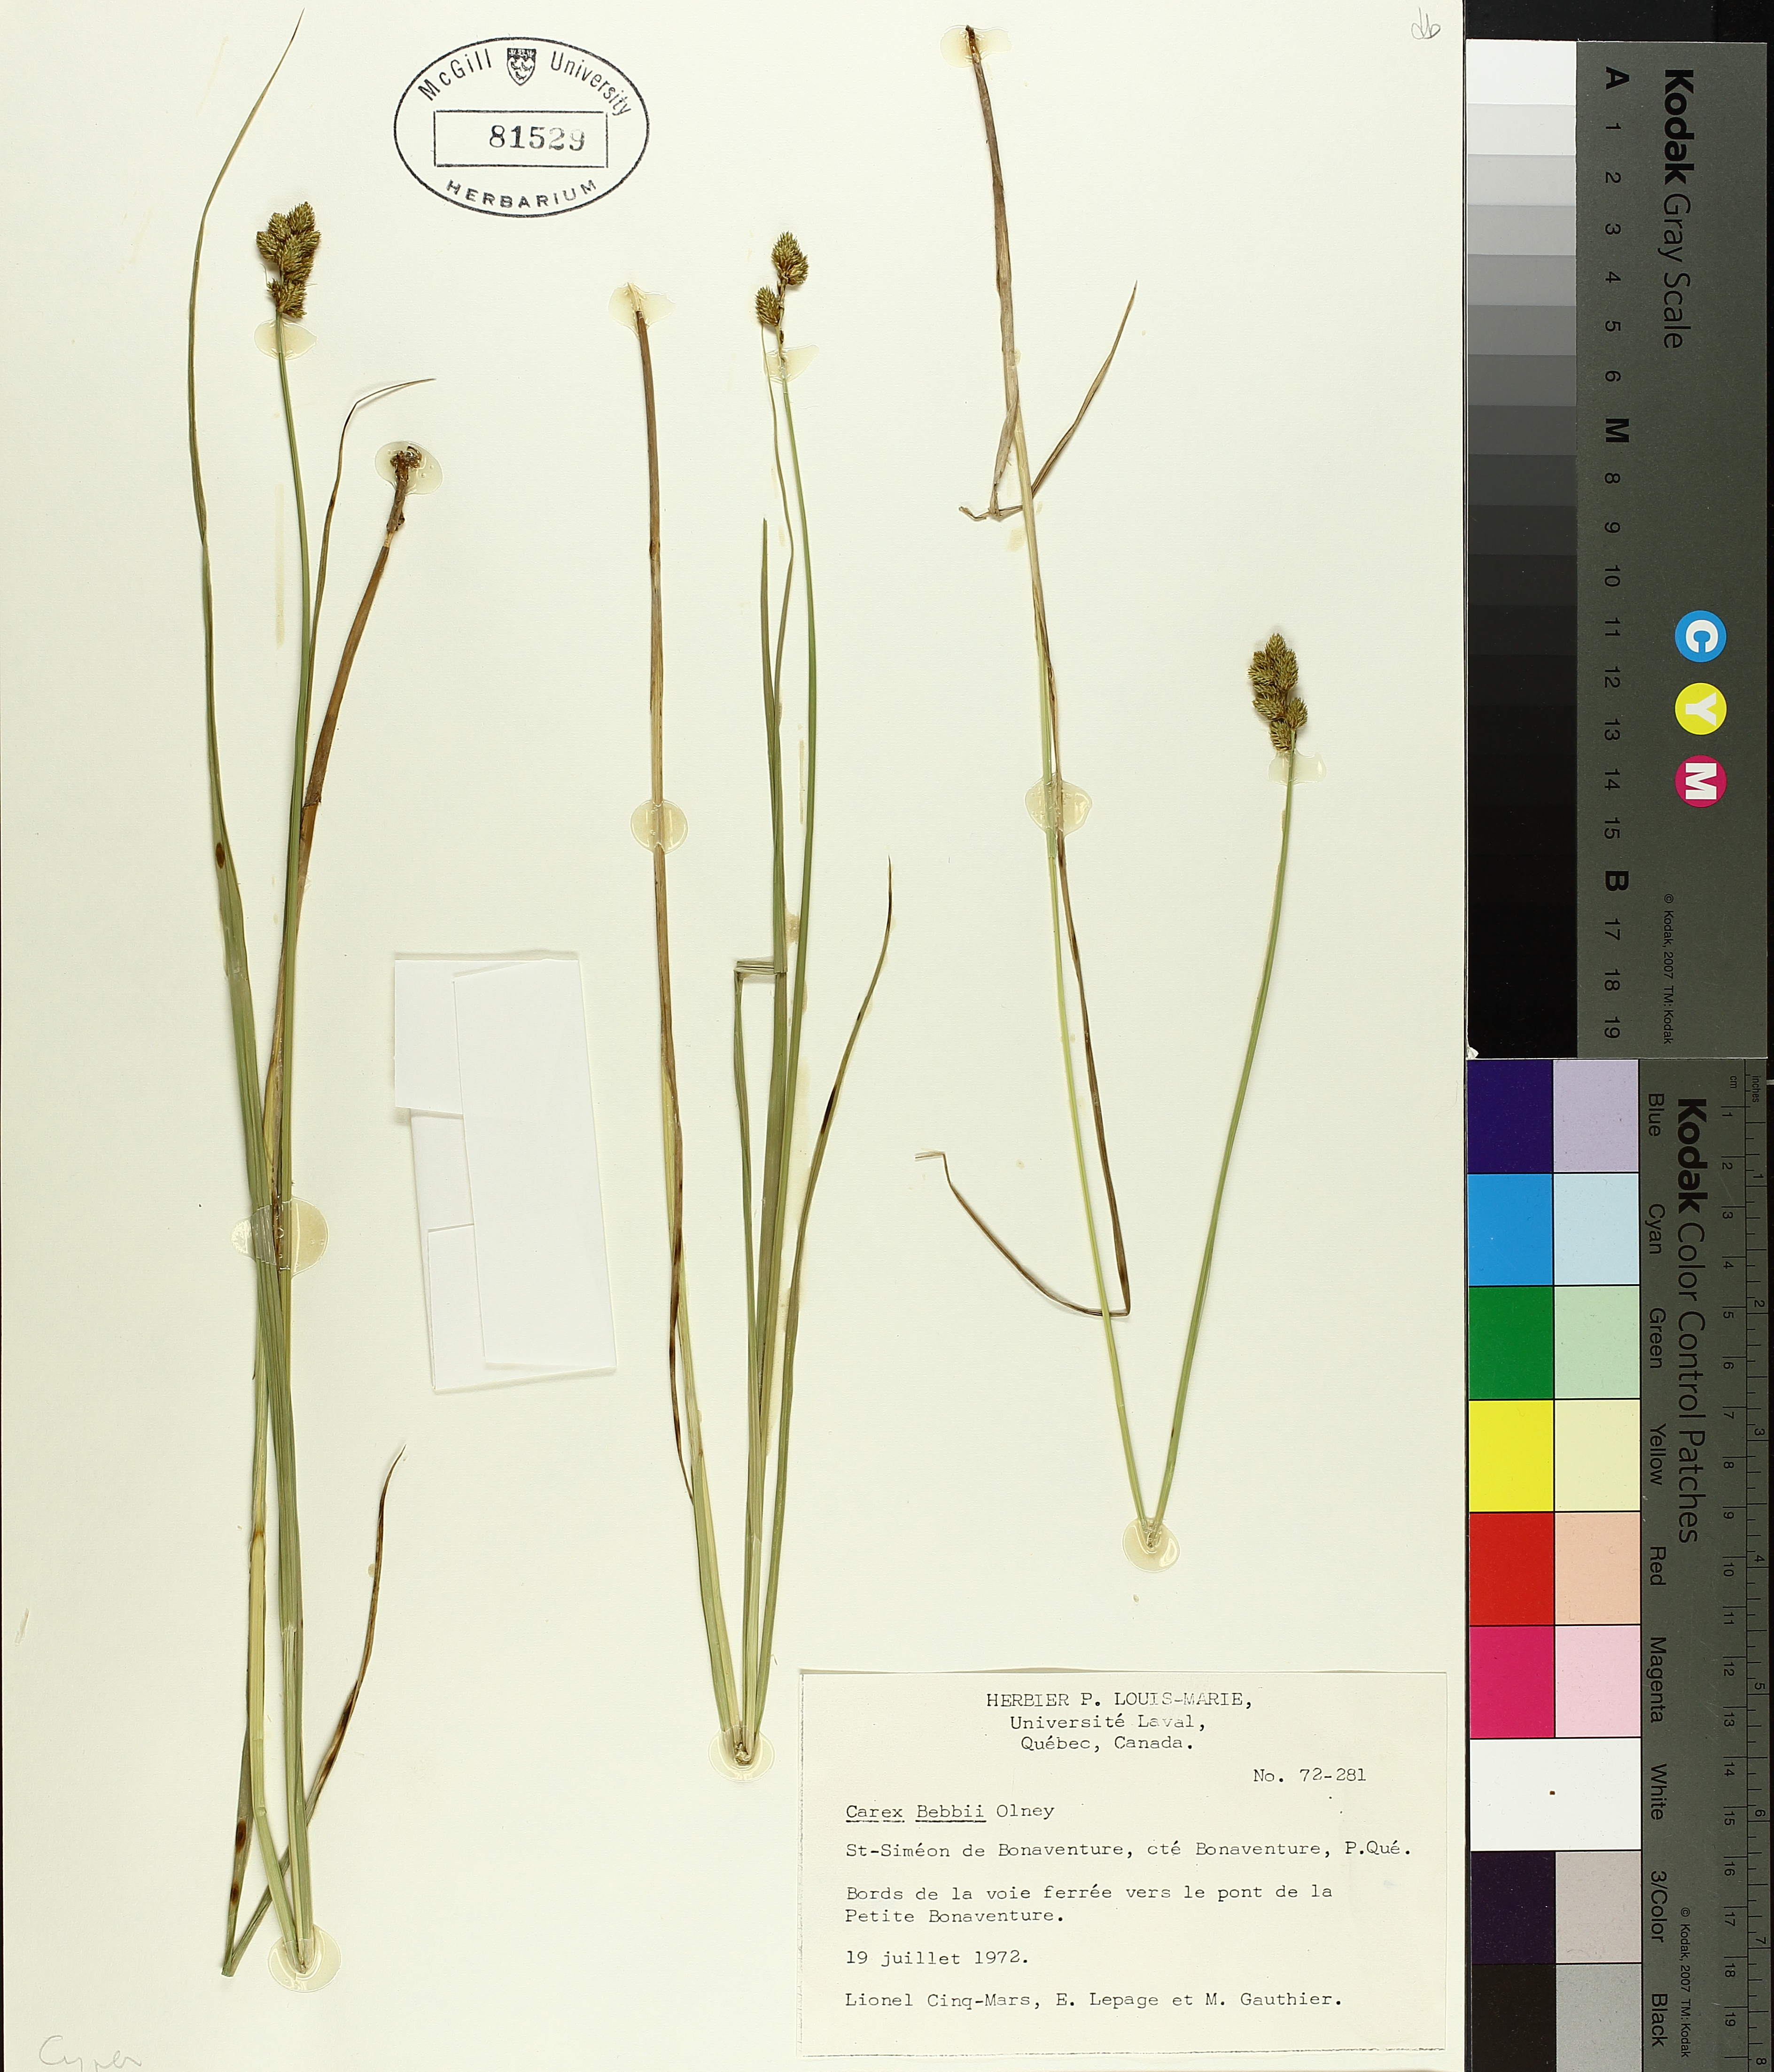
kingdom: Plantae
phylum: Tracheophyta
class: Liliopsida
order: Poales
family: Cyperaceae
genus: Carex
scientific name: Carex bebbii
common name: Bebb's sedge
